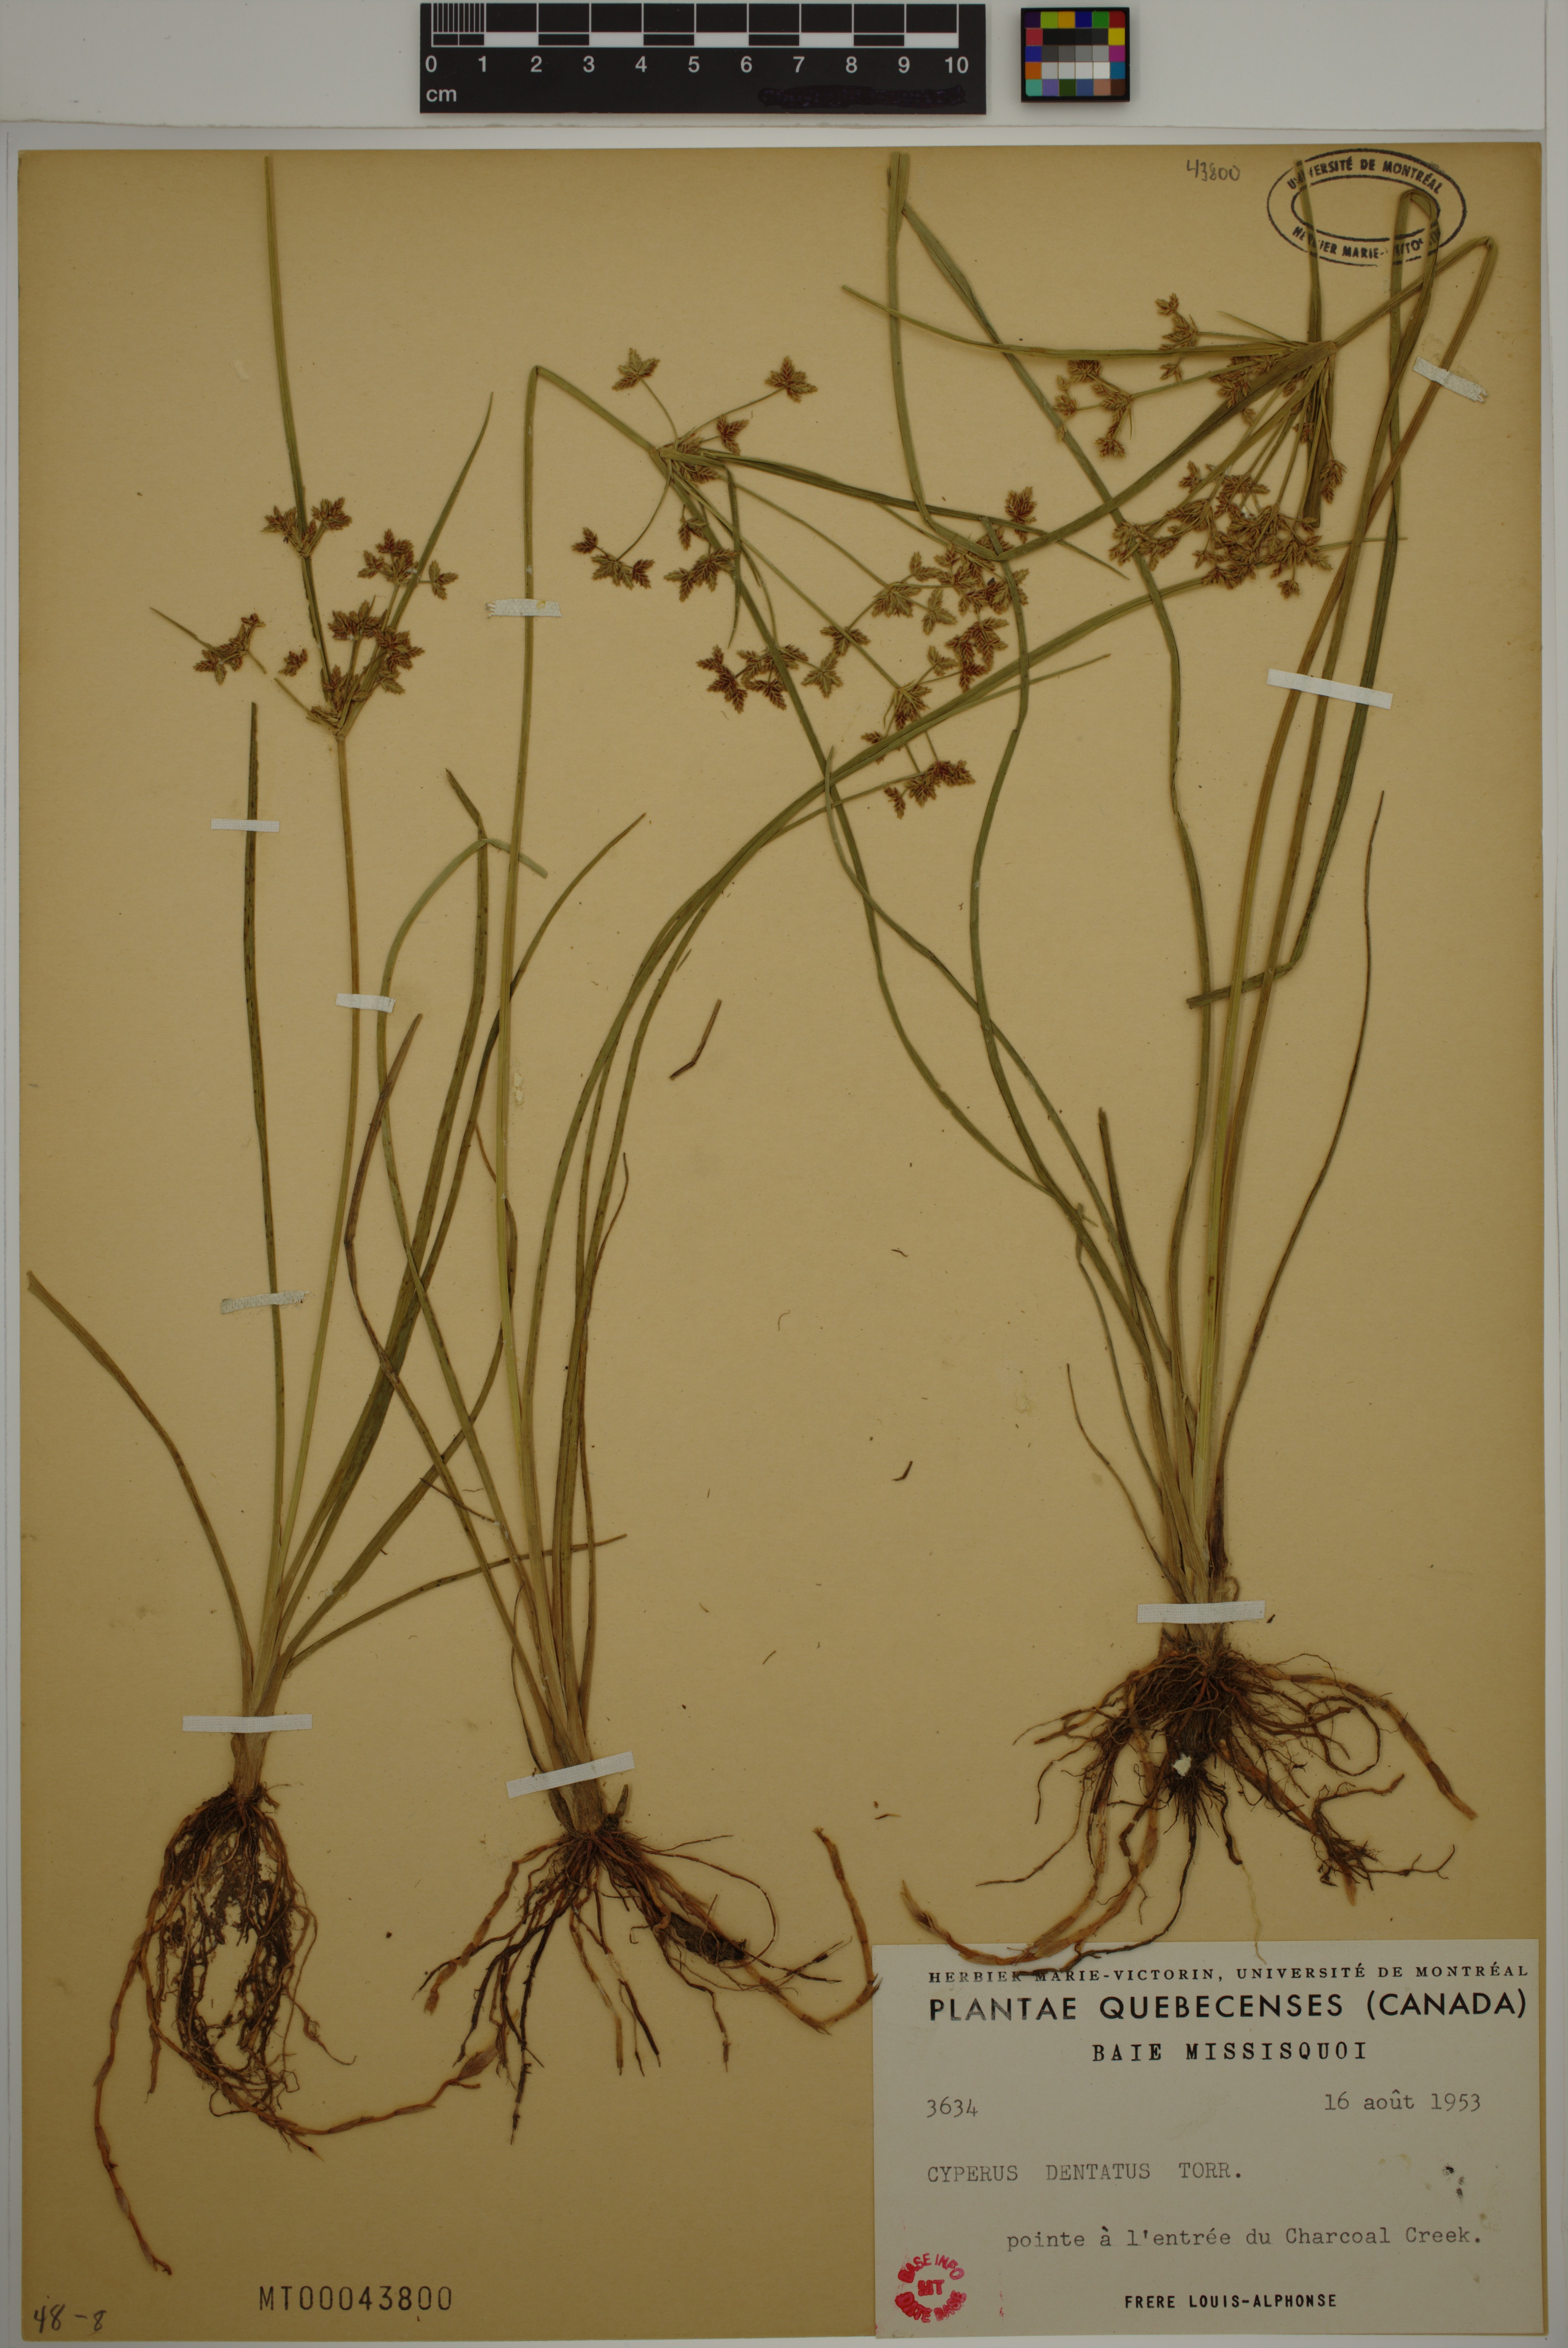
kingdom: Plantae
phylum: Tracheophyta
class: Liliopsida
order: Poales
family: Cyperaceae
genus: Cyperus
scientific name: Cyperus dentatus
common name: Dentate umbrella sedge
